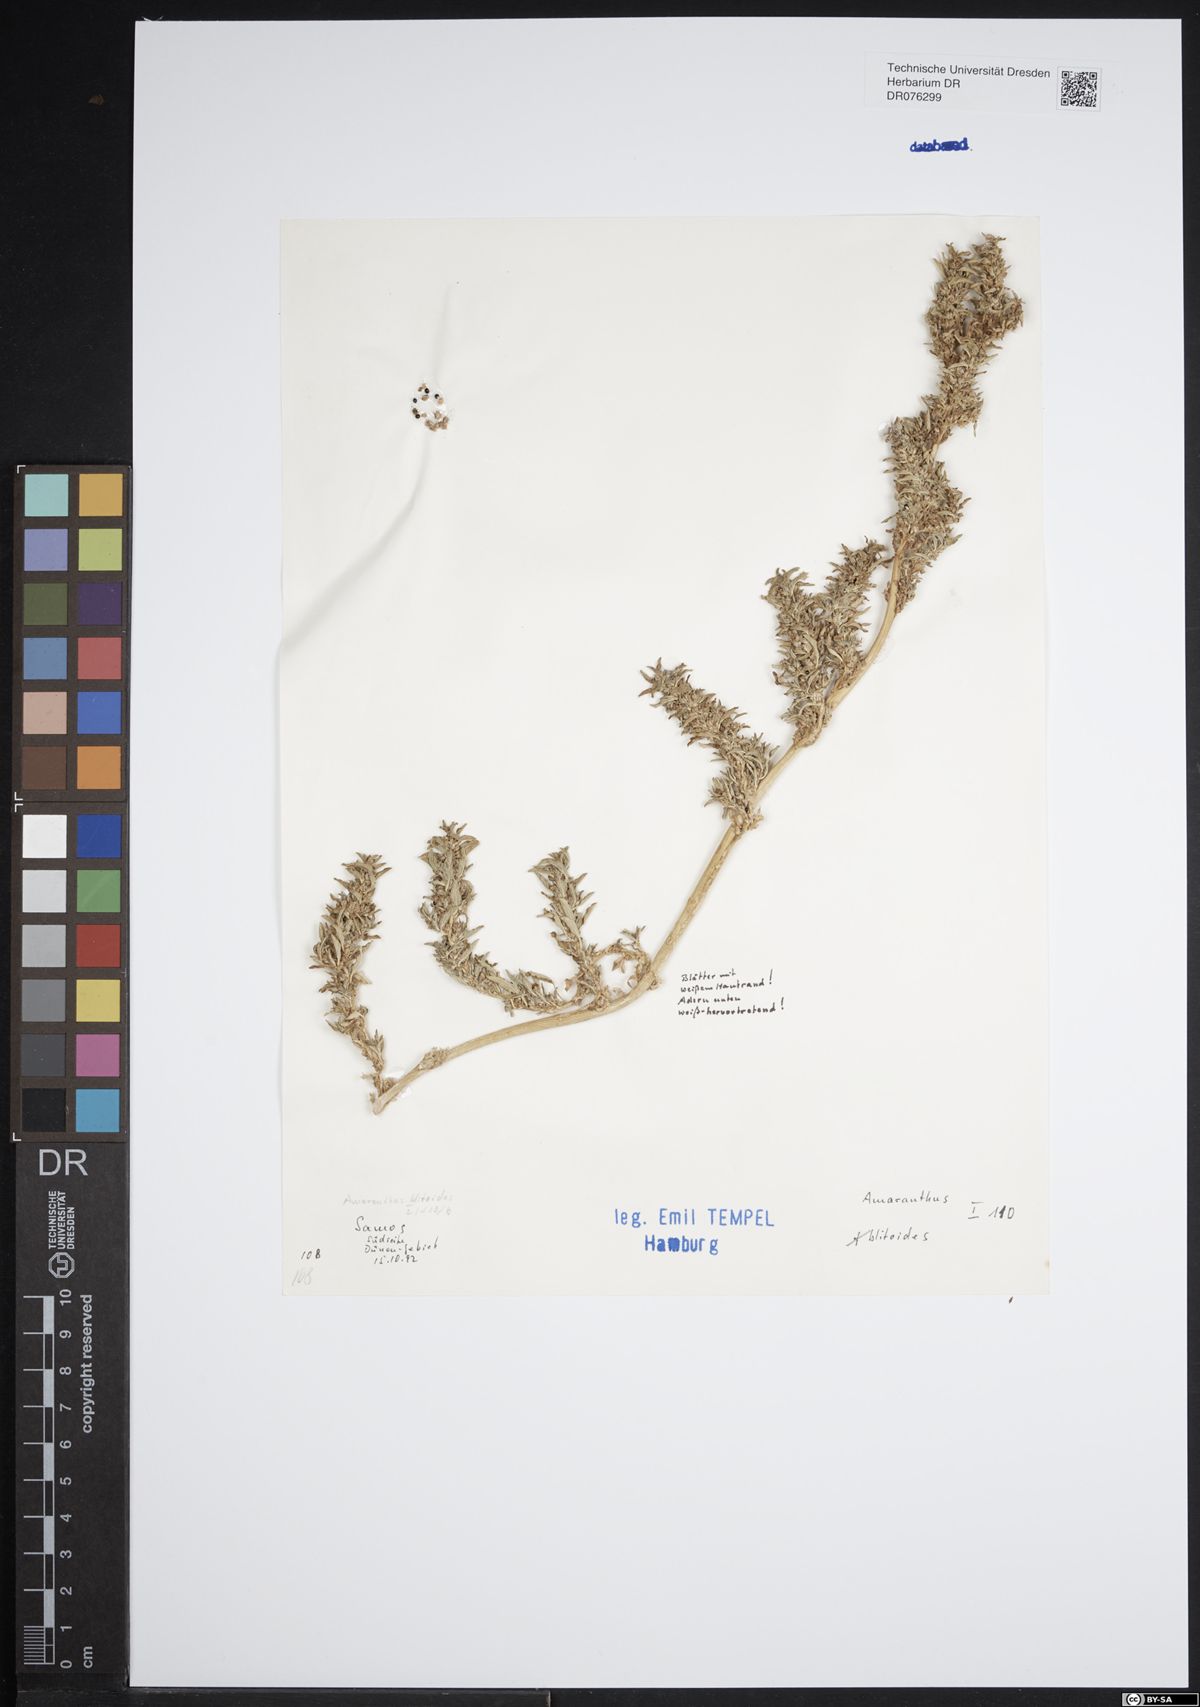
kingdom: Plantae
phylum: Tracheophyta
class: Magnoliopsida
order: Caryophyllales
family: Amaranthaceae
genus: Amaranthus
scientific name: Amaranthus blitoides
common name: Prostrate pigweed
